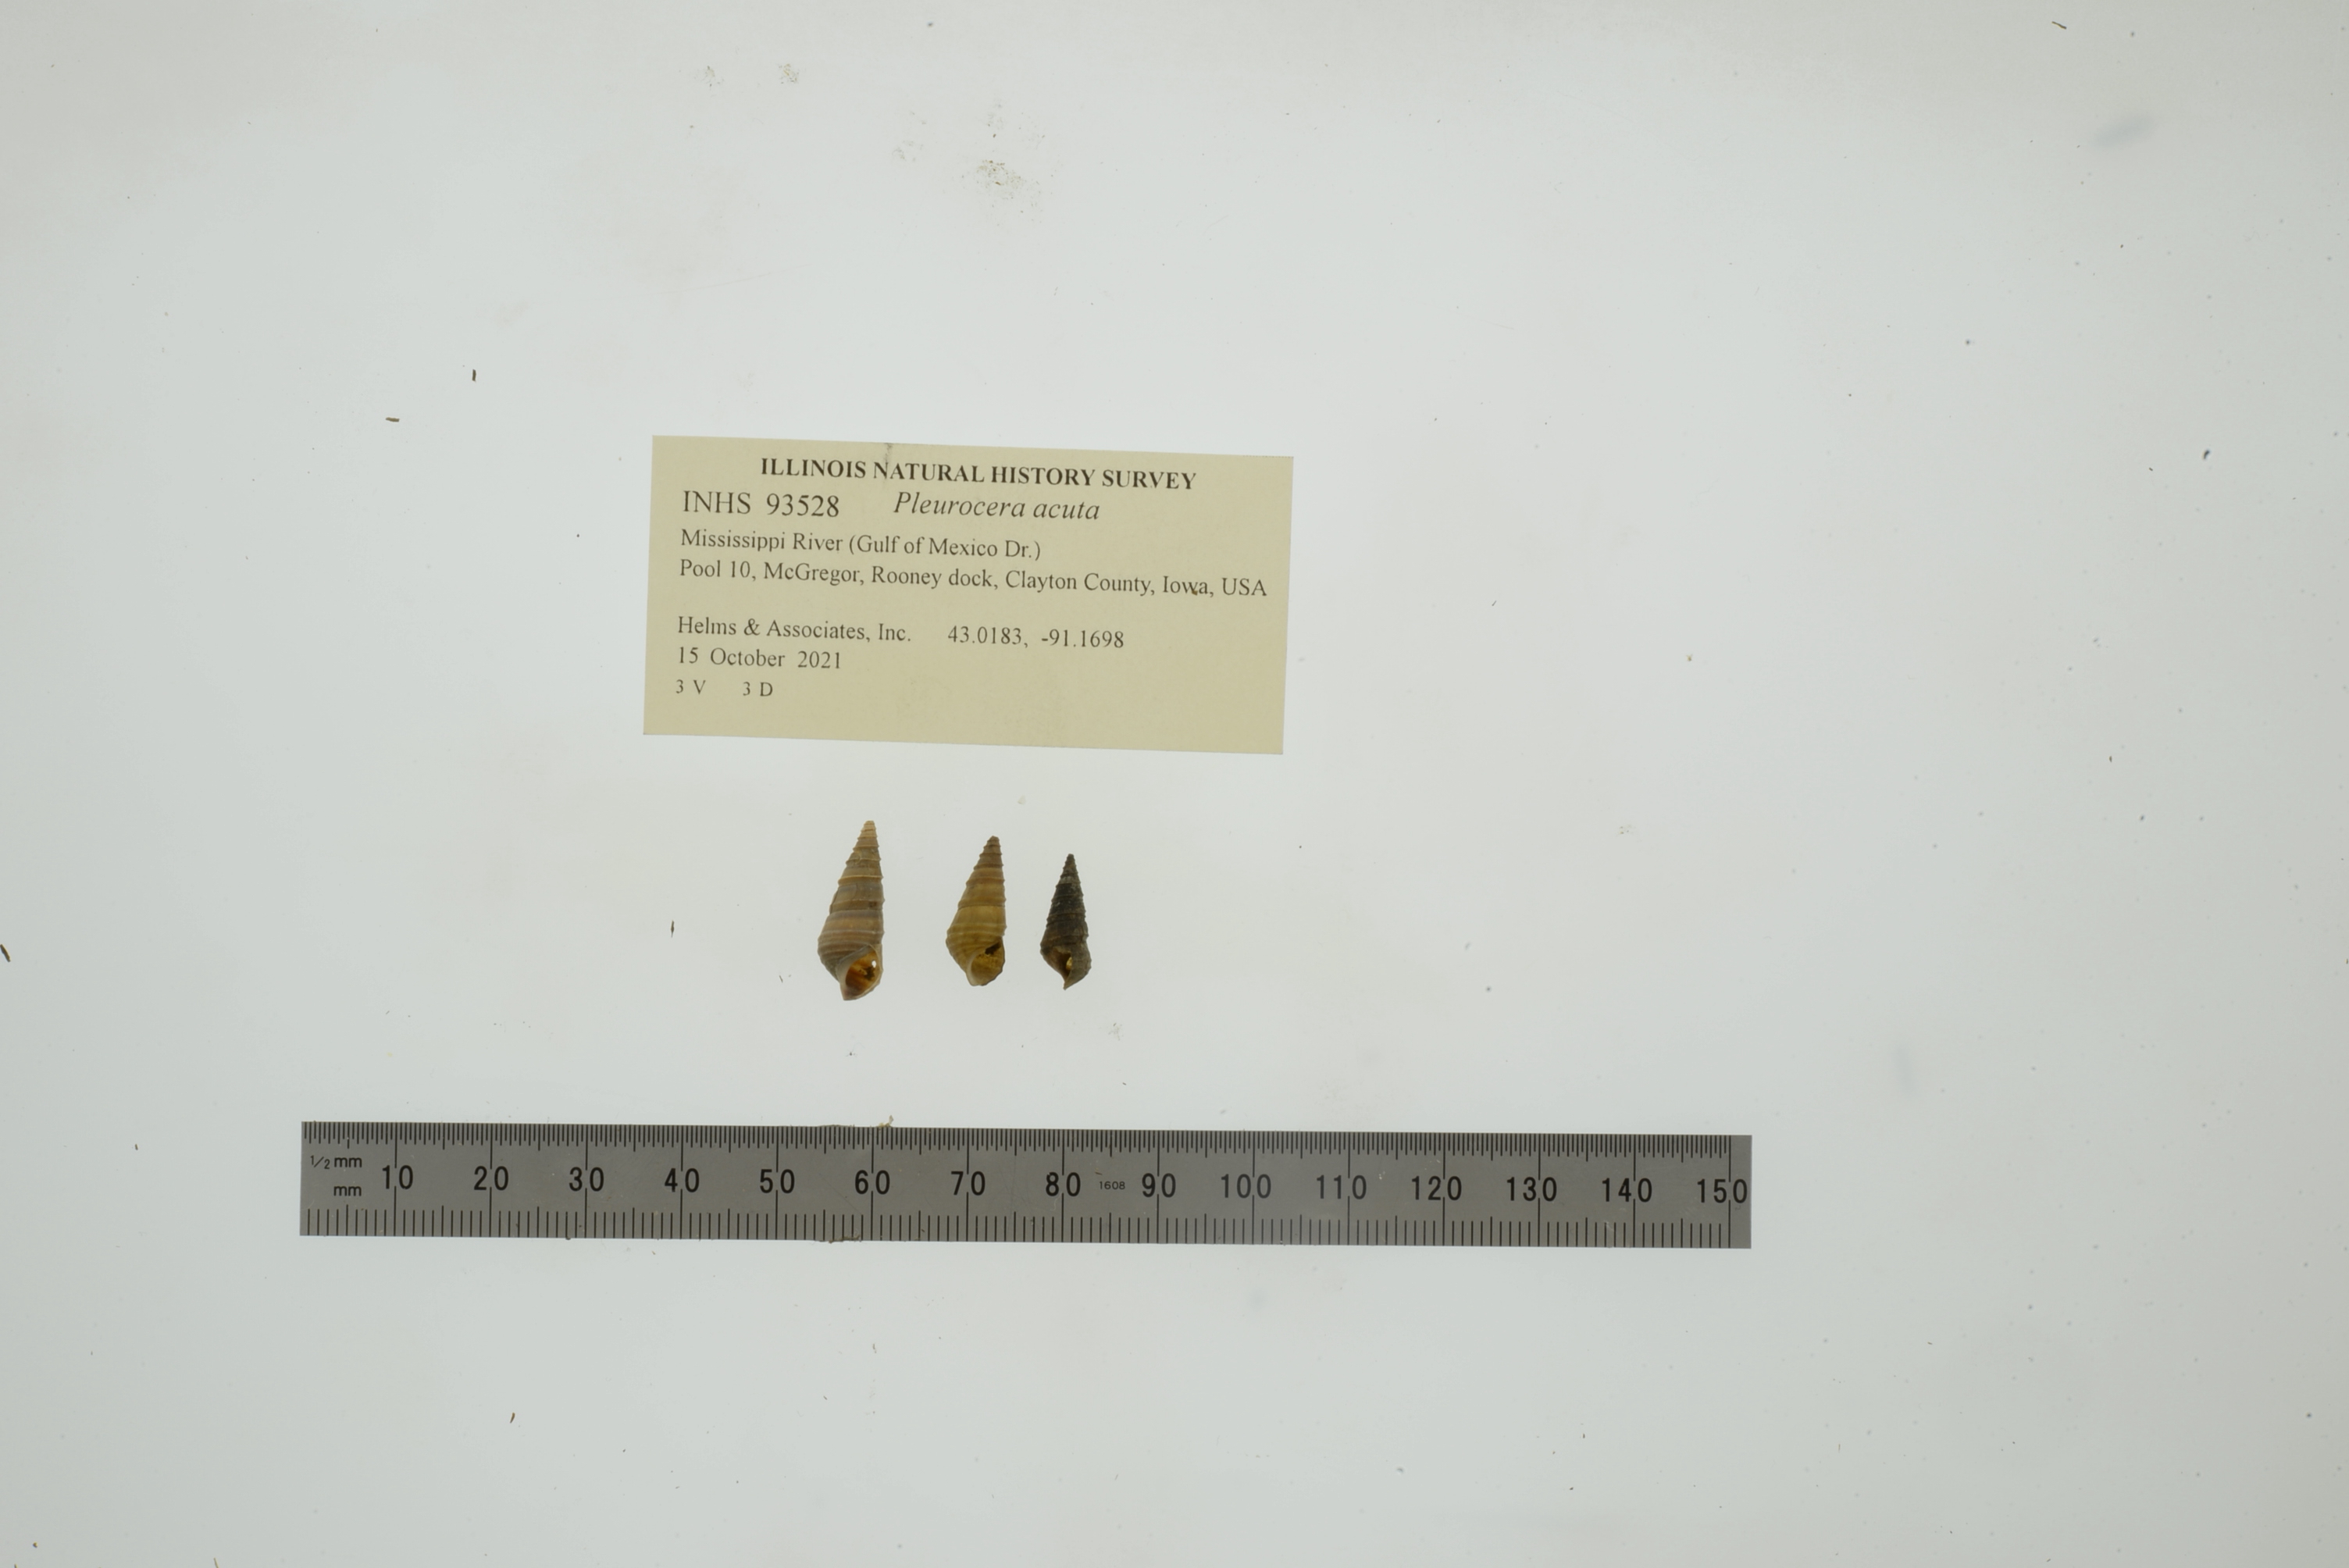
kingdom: Animalia
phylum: Mollusca
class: Gastropoda
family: Pleuroceridae
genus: Pleurocera
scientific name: Pleurocera acuta
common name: Sharp hornsnail
